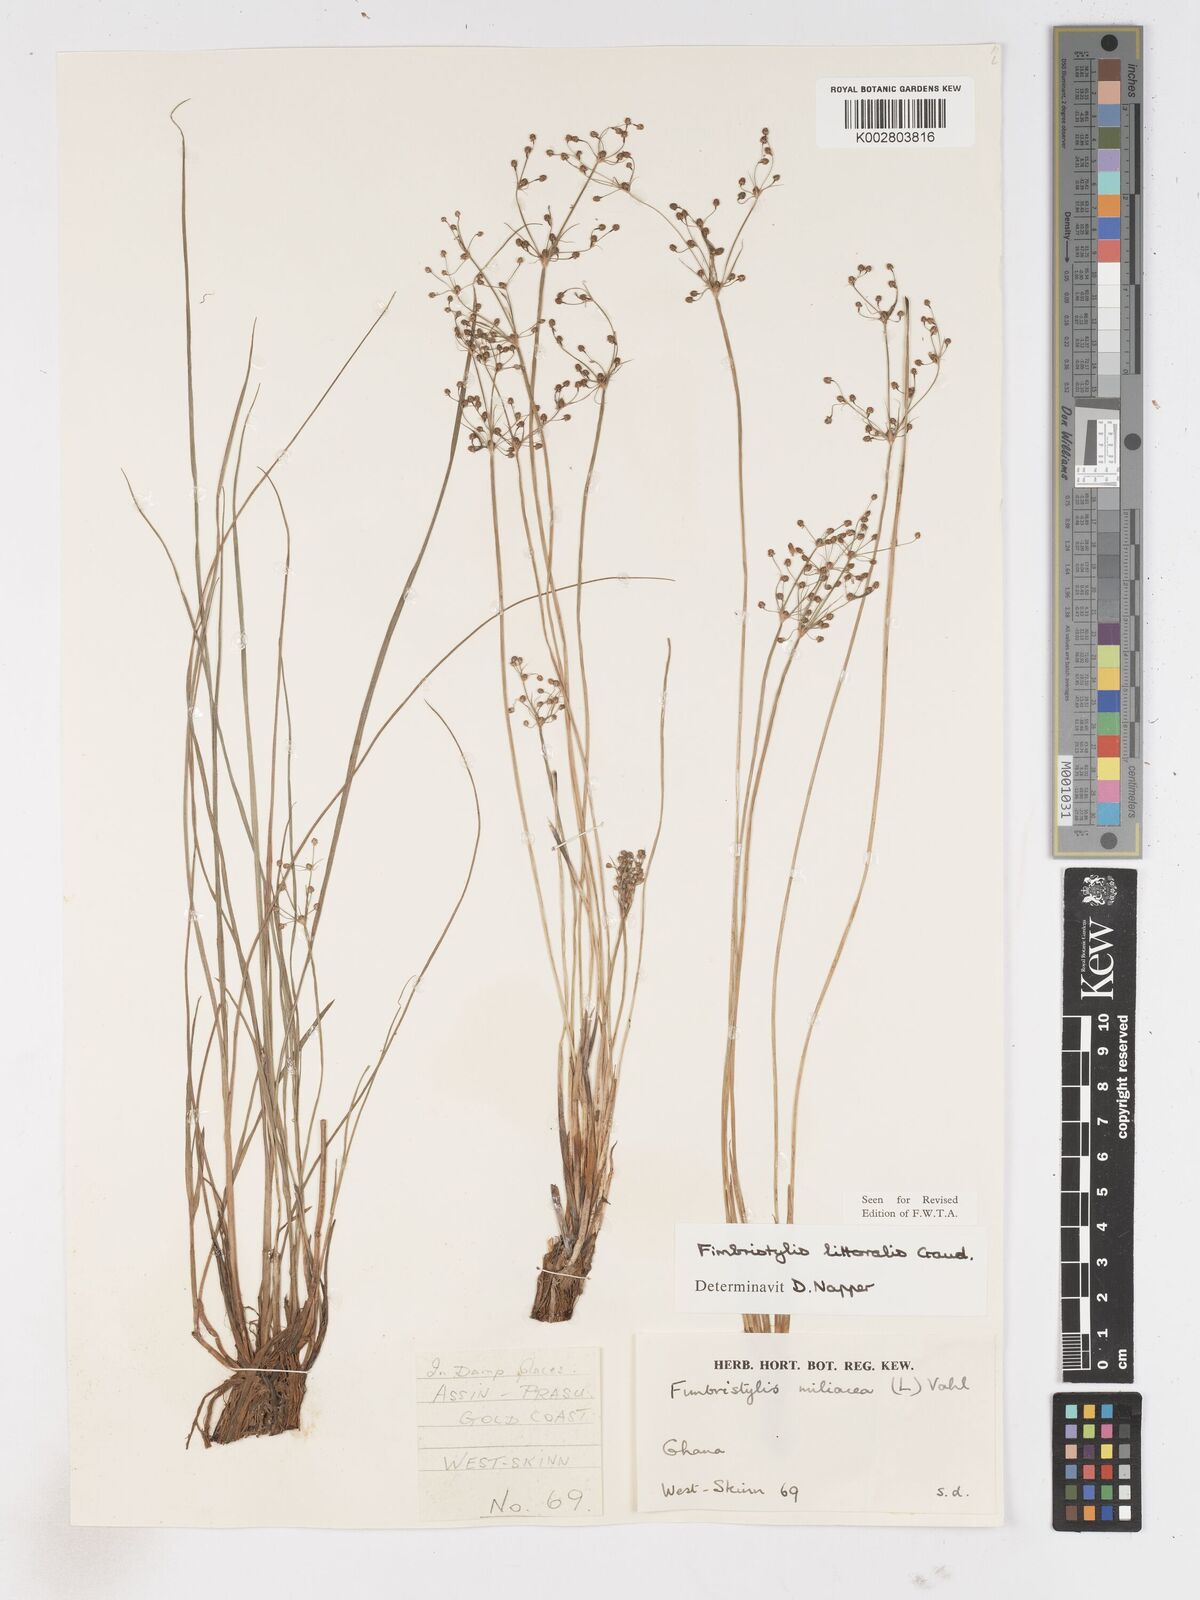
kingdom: Plantae
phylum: Tracheophyta
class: Liliopsida
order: Poales
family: Cyperaceae
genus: Fimbristylis
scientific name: Fimbristylis littoralis
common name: Fimbry
